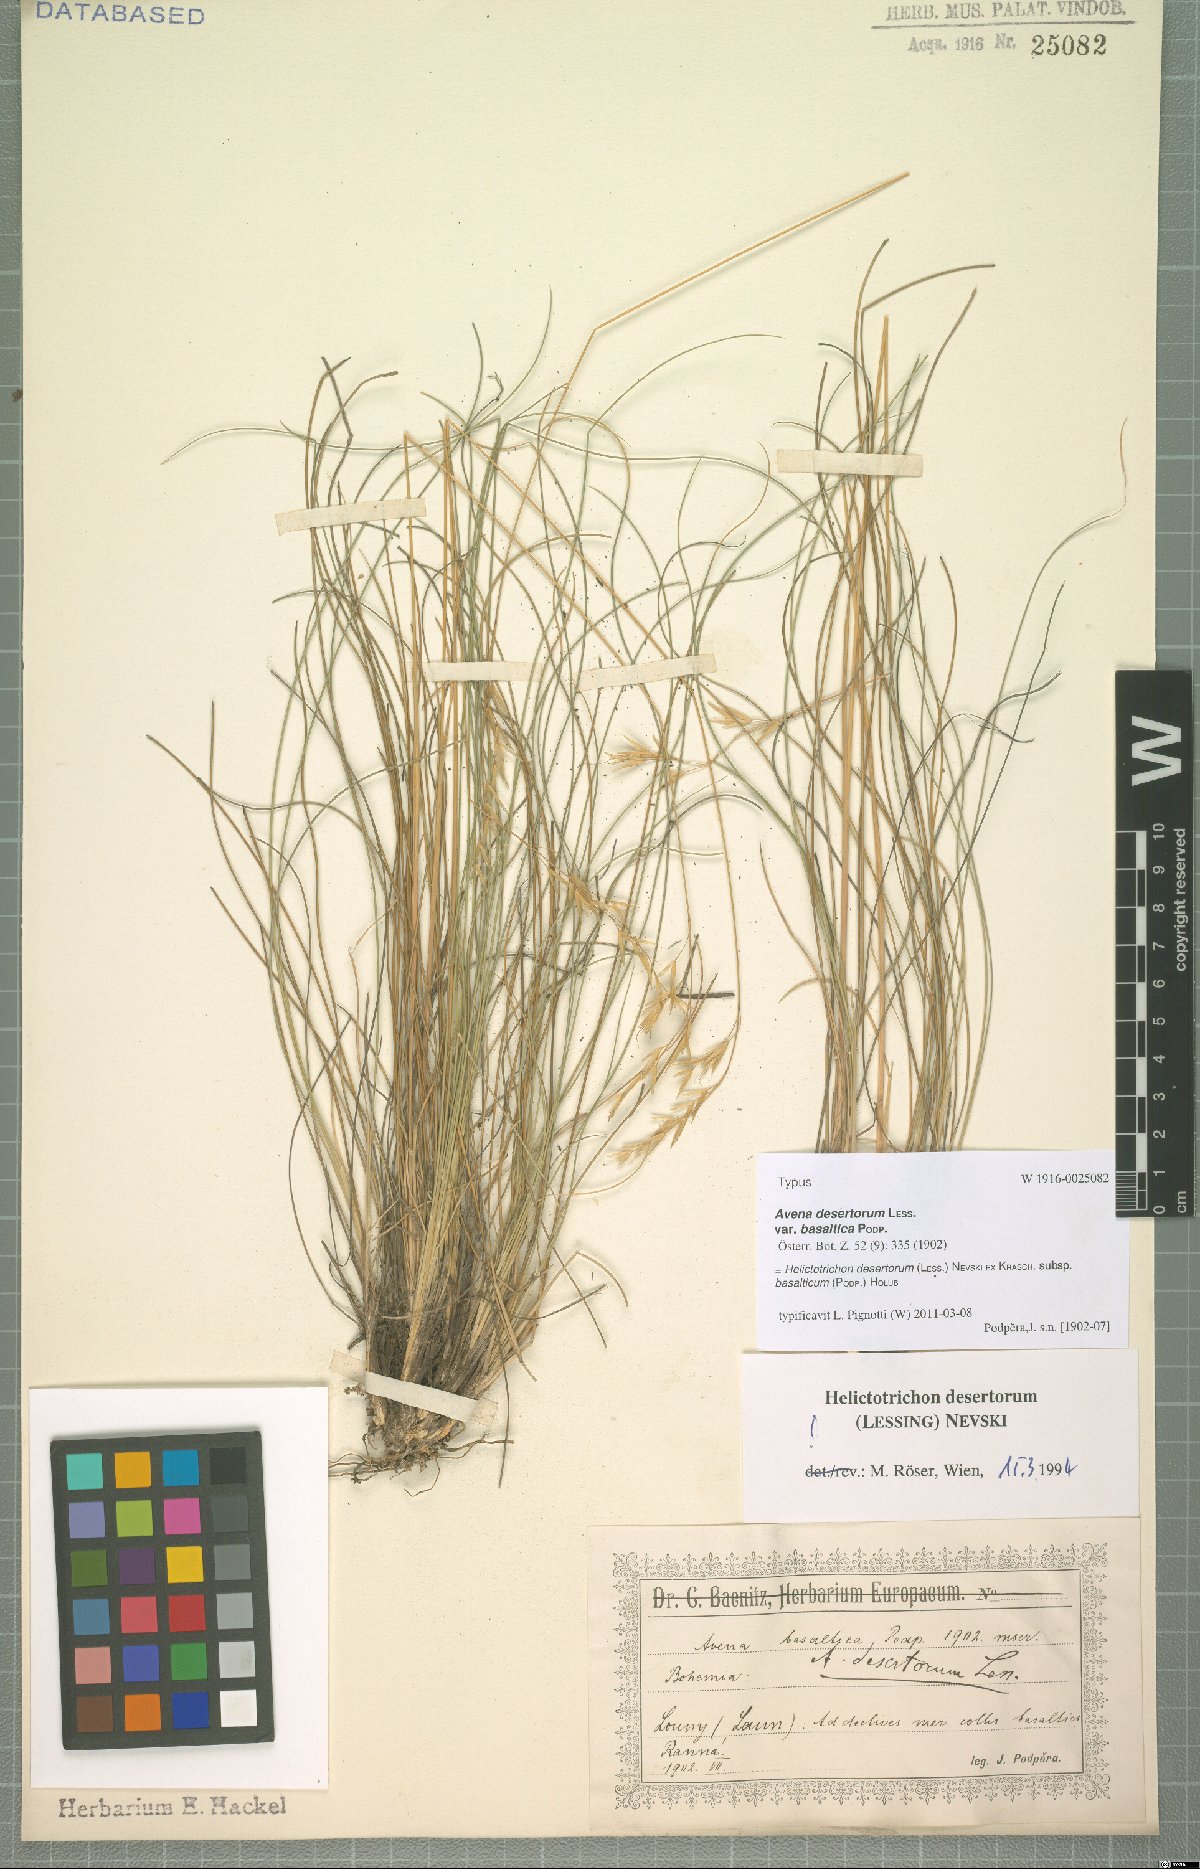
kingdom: Plantae
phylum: Tracheophyta
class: Liliopsida
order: Poales
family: Poaceae
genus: Helictotrichon
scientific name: Helictotrichon desertorum
